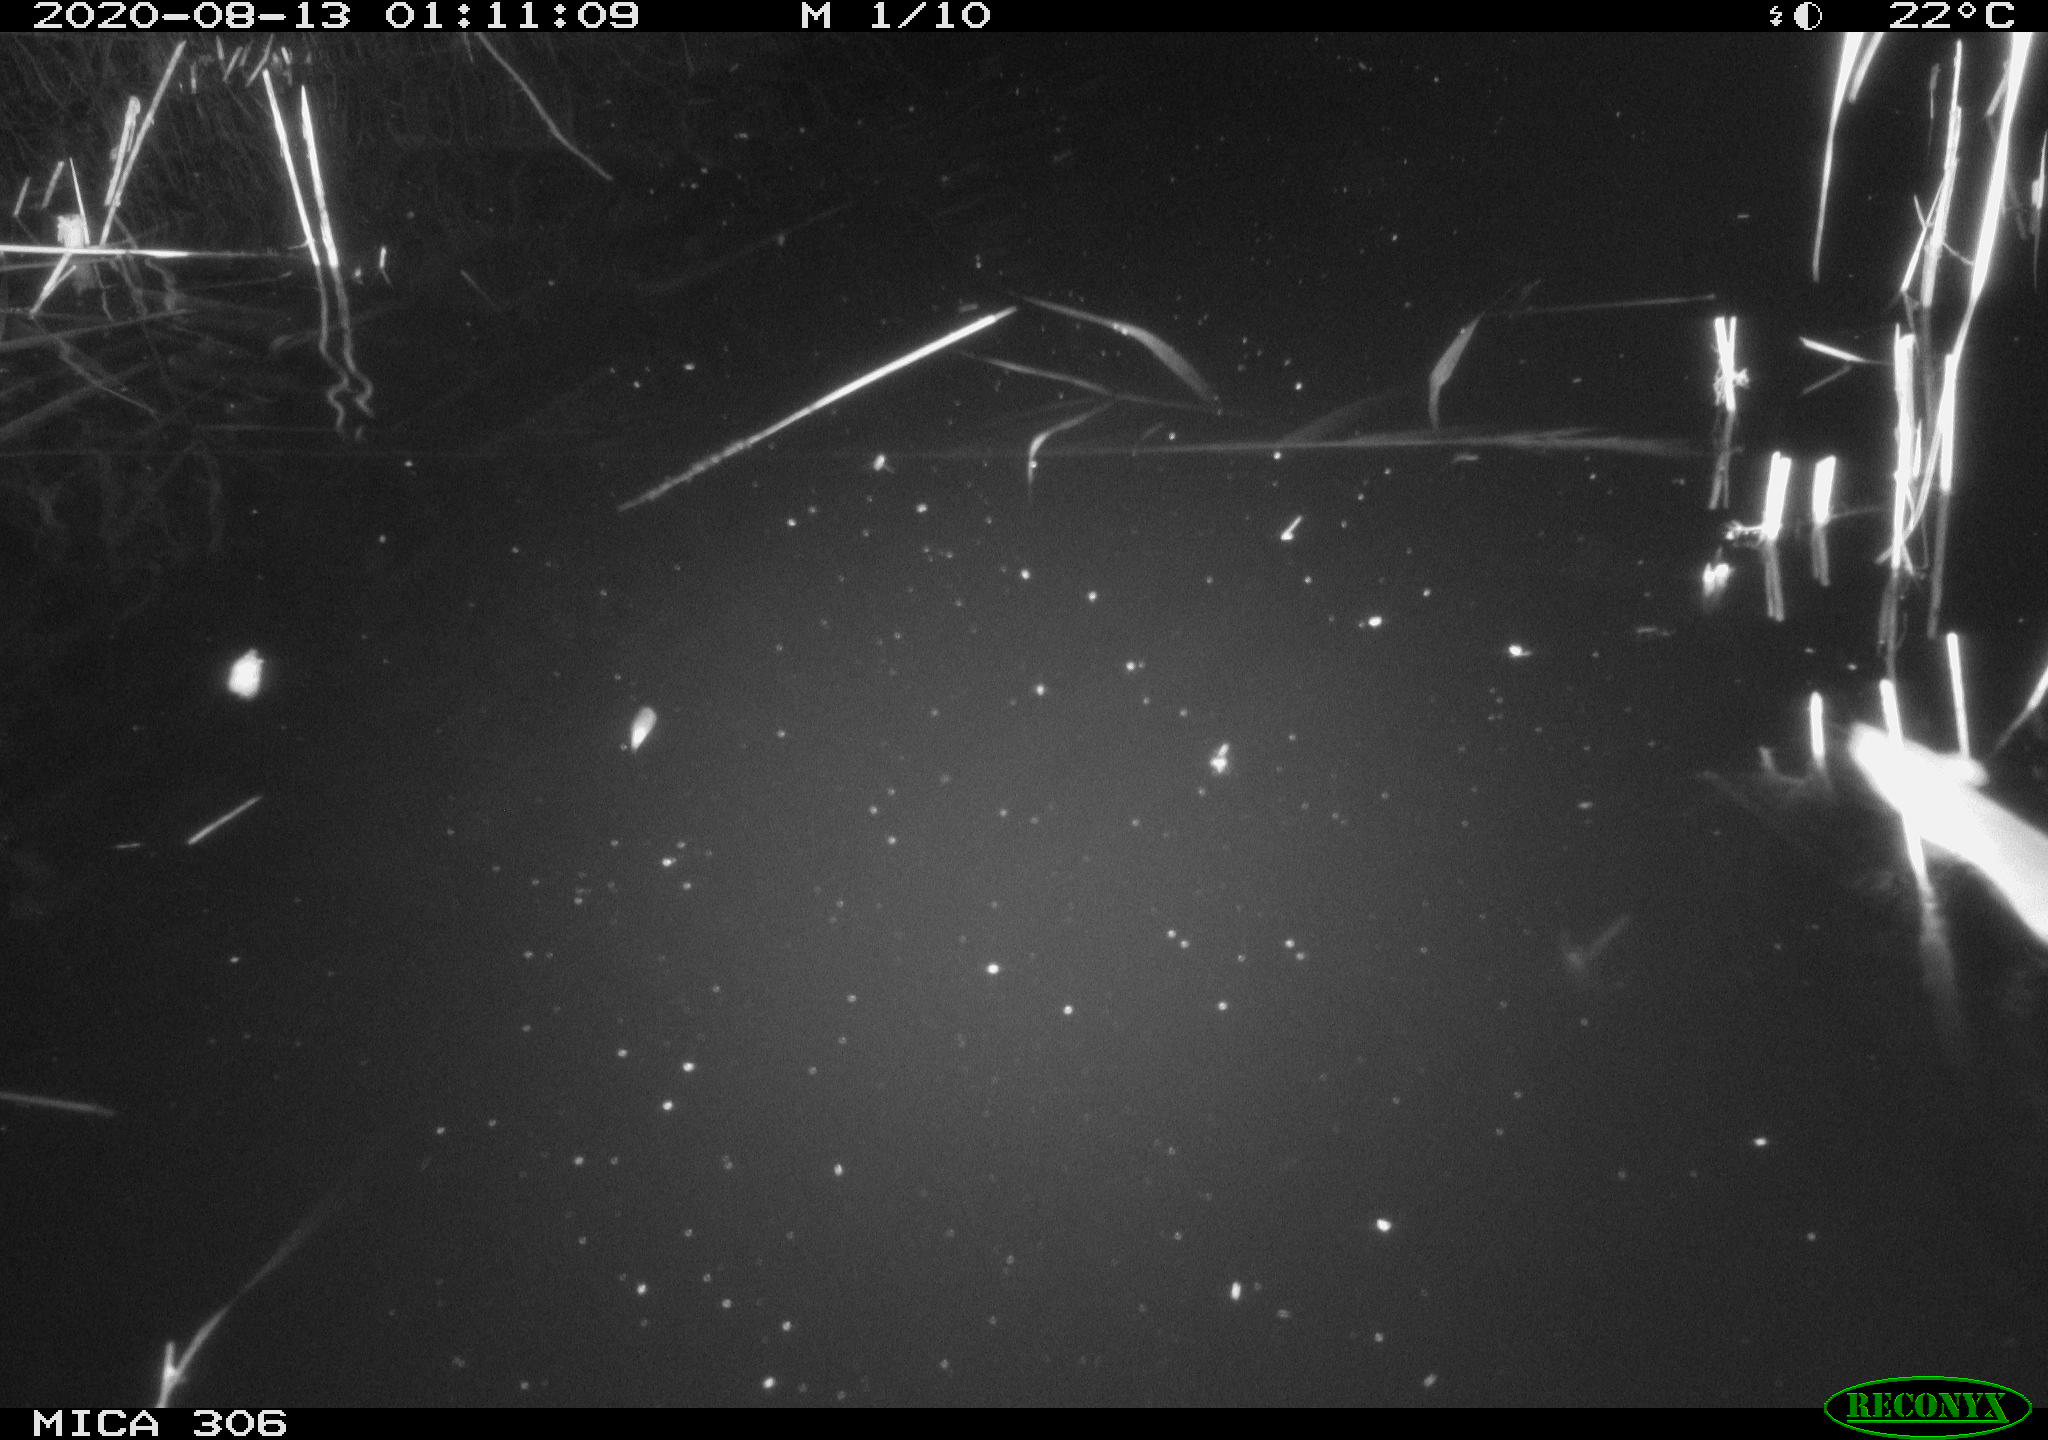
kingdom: Animalia
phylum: Chordata
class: Mammalia
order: Rodentia
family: Muridae
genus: Rattus
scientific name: Rattus norvegicus
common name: Brown rat
